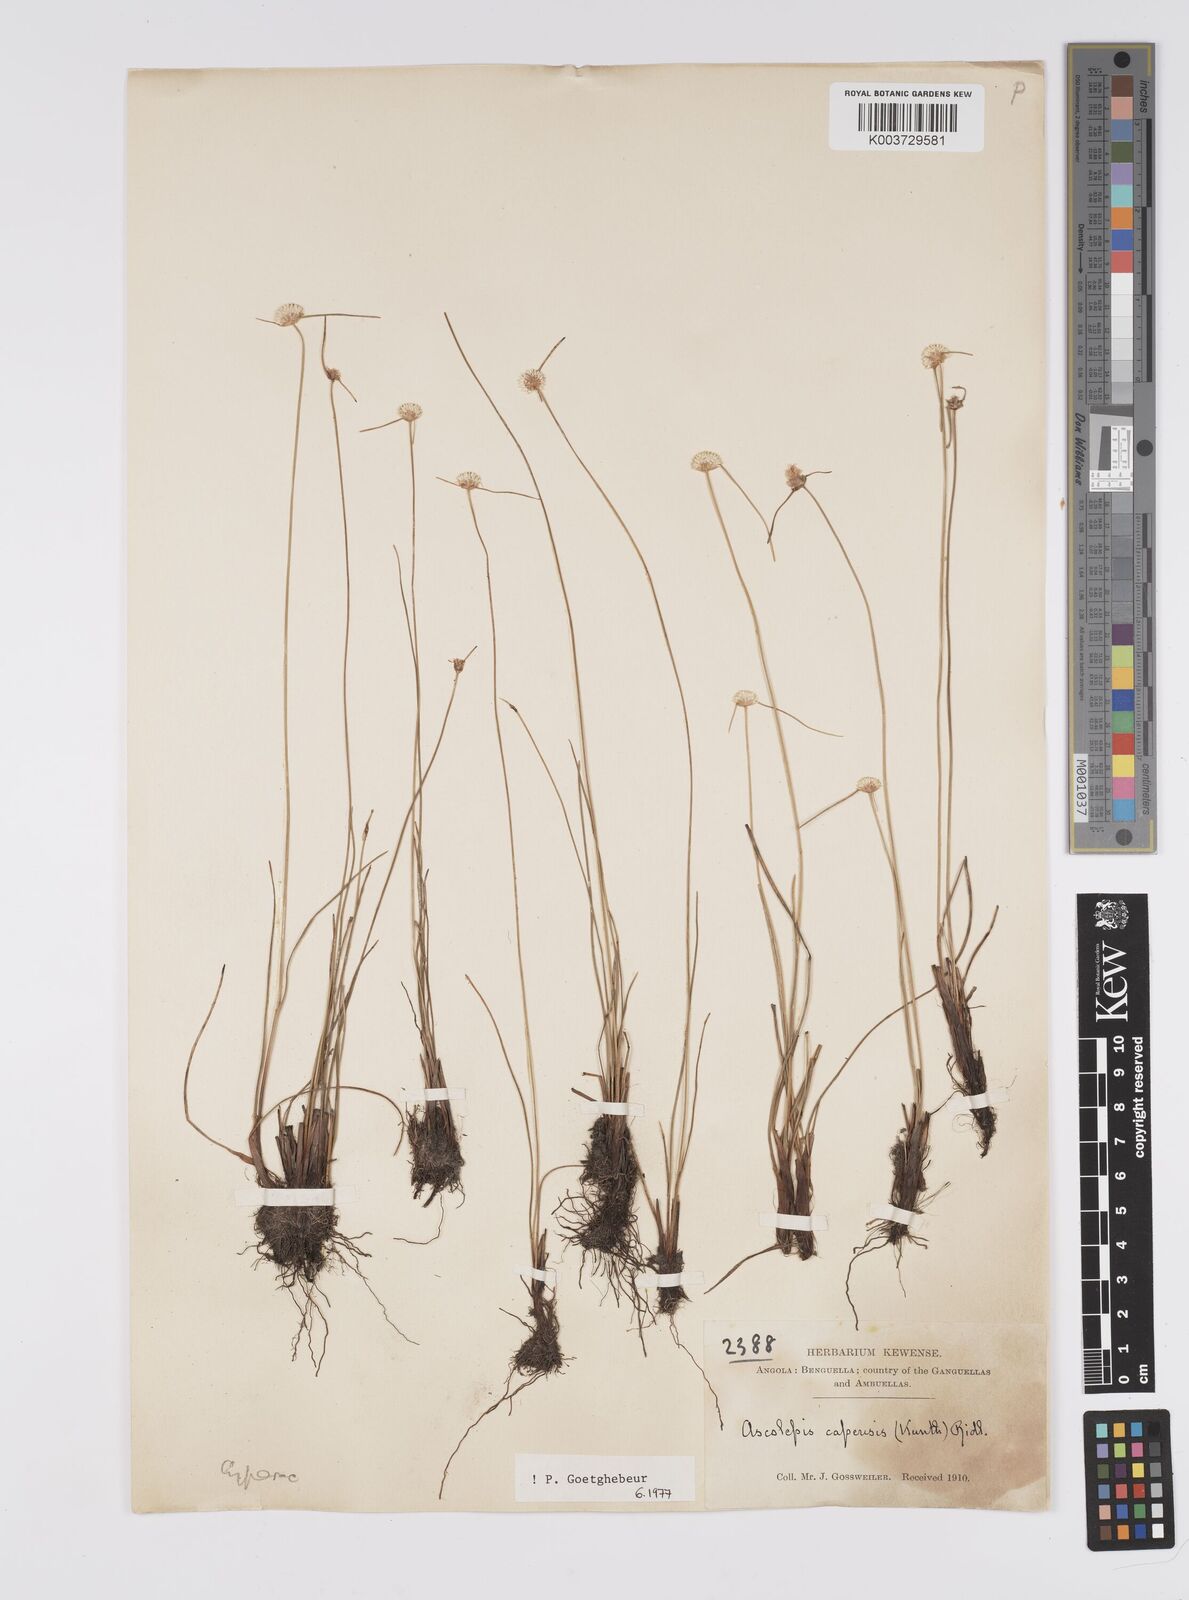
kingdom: Plantae
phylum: Tracheophyta
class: Liliopsida
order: Poales
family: Cyperaceae
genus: Cyperus
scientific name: Cyperus
